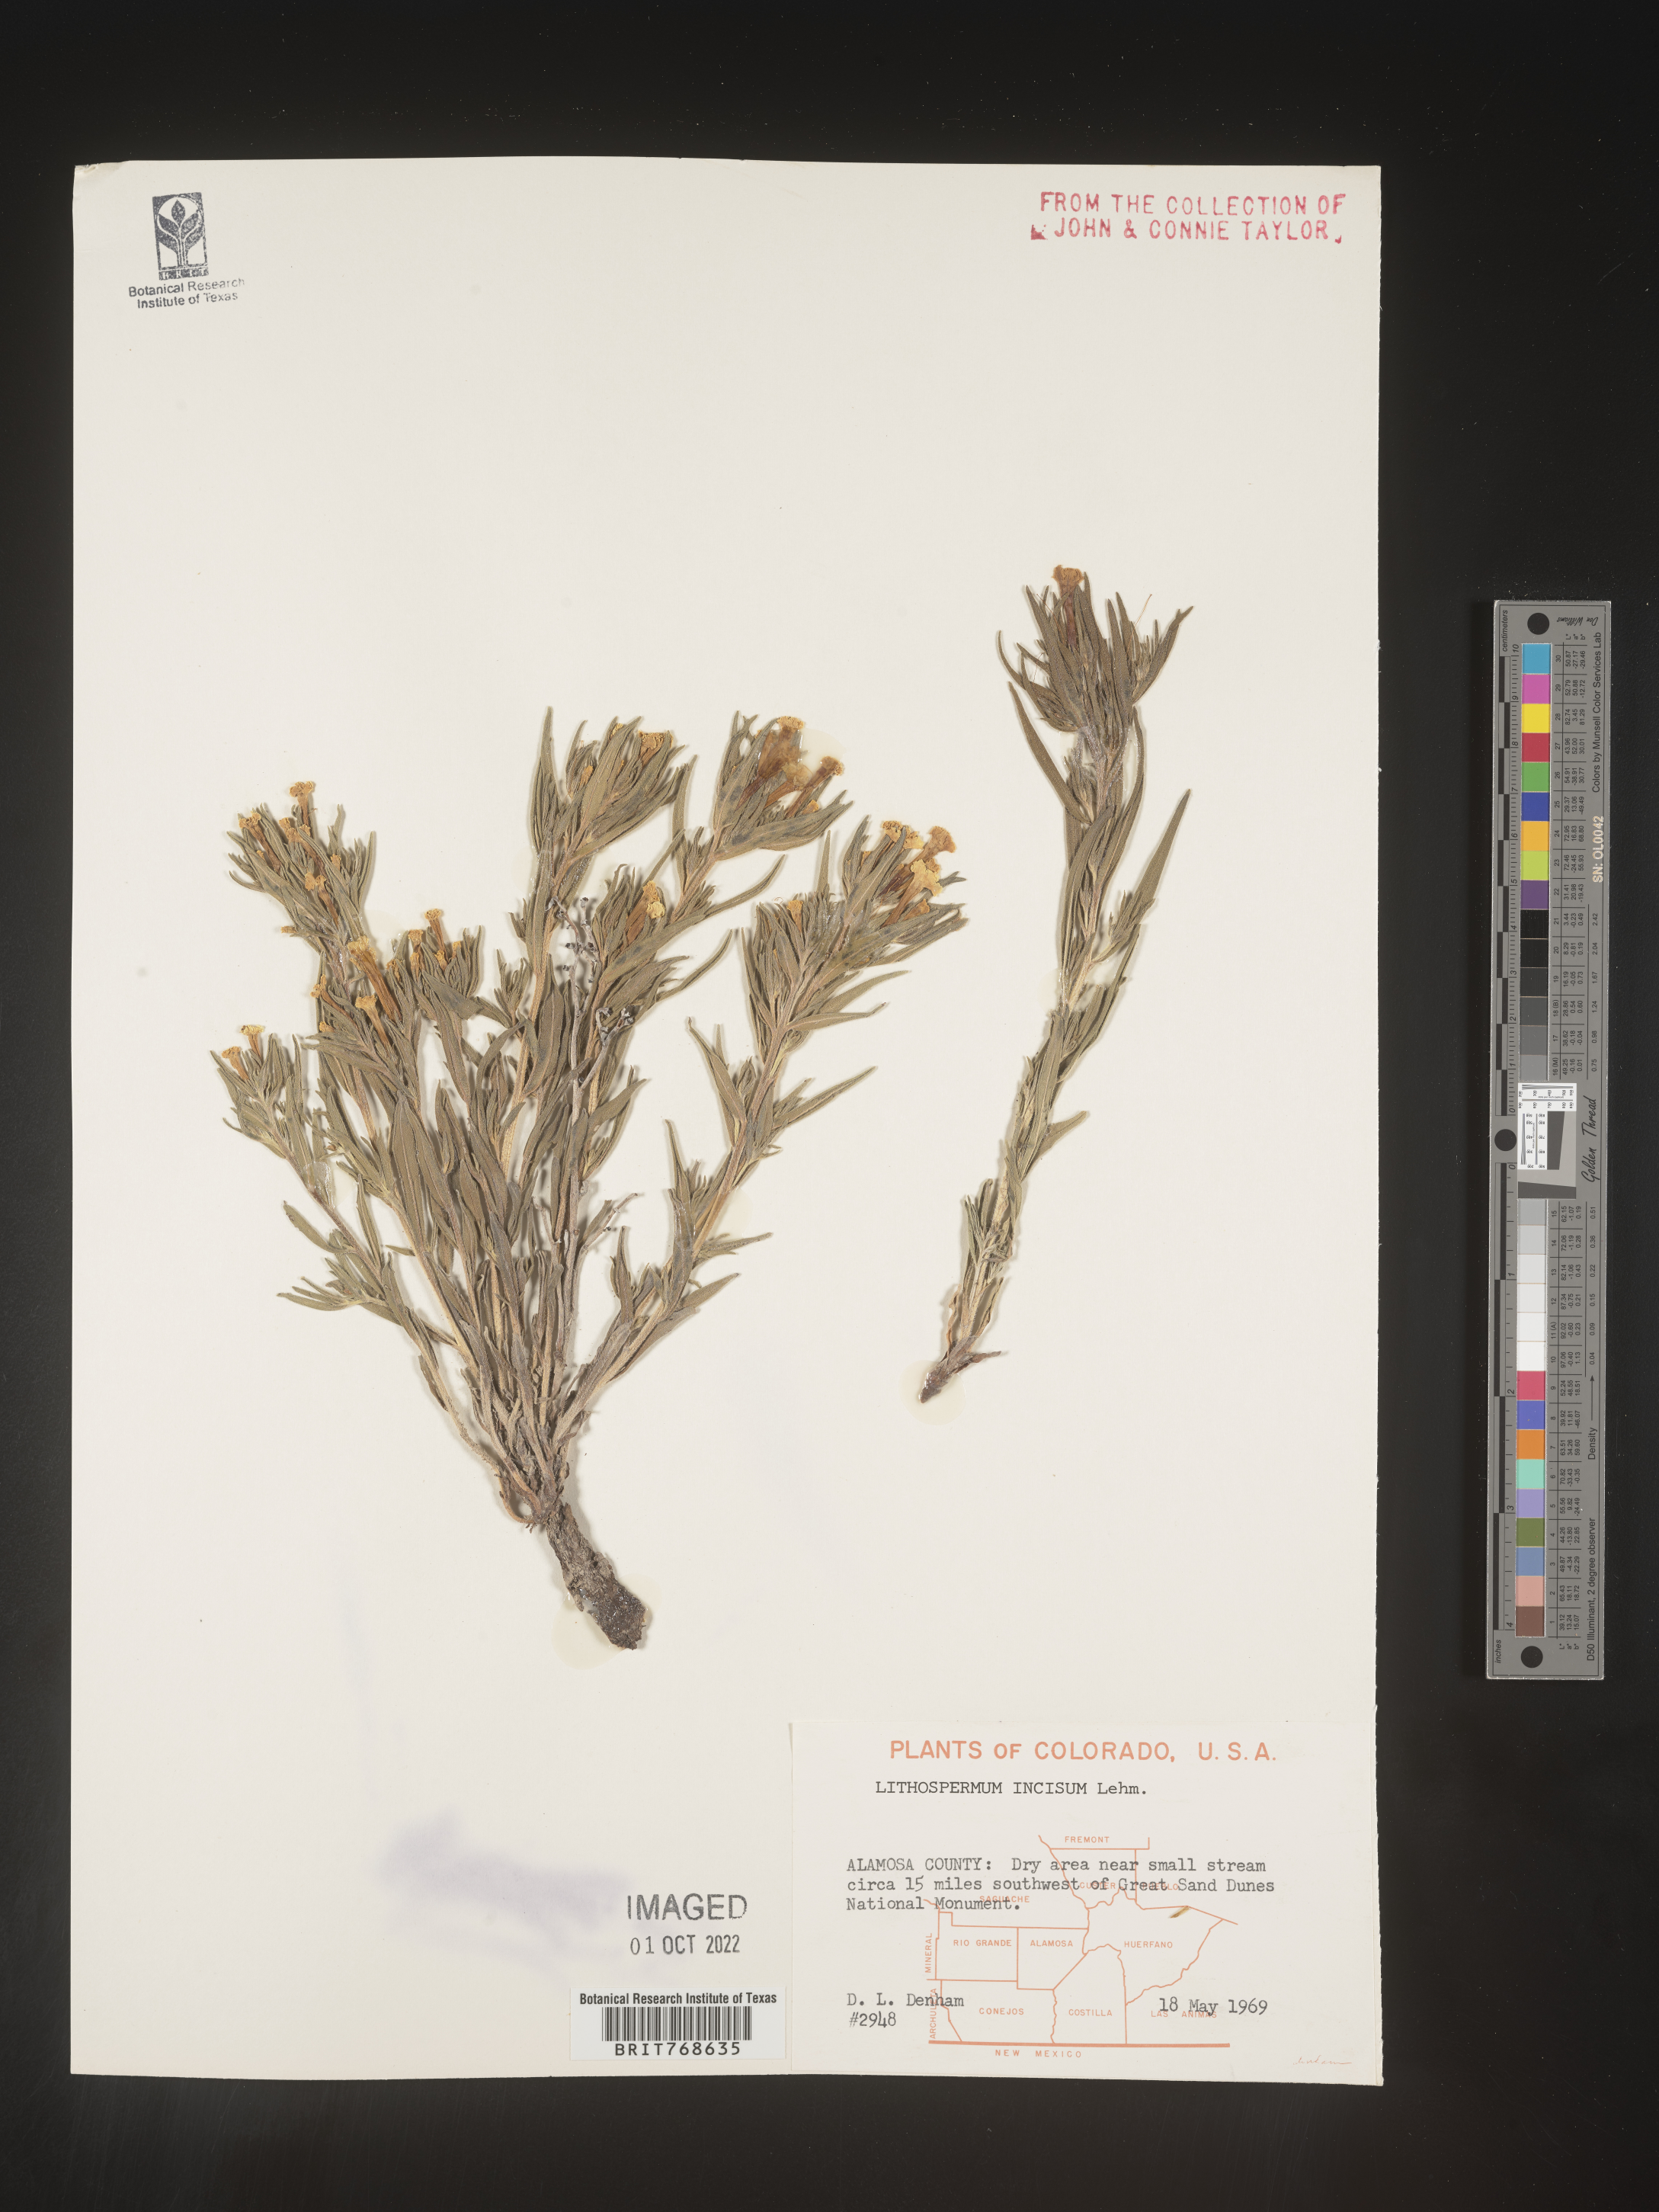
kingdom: Plantae
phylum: Tracheophyta
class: Magnoliopsida
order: Boraginales
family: Boraginaceae
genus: Lithospermum
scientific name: Lithospermum incisum
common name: Fringed gromwell
